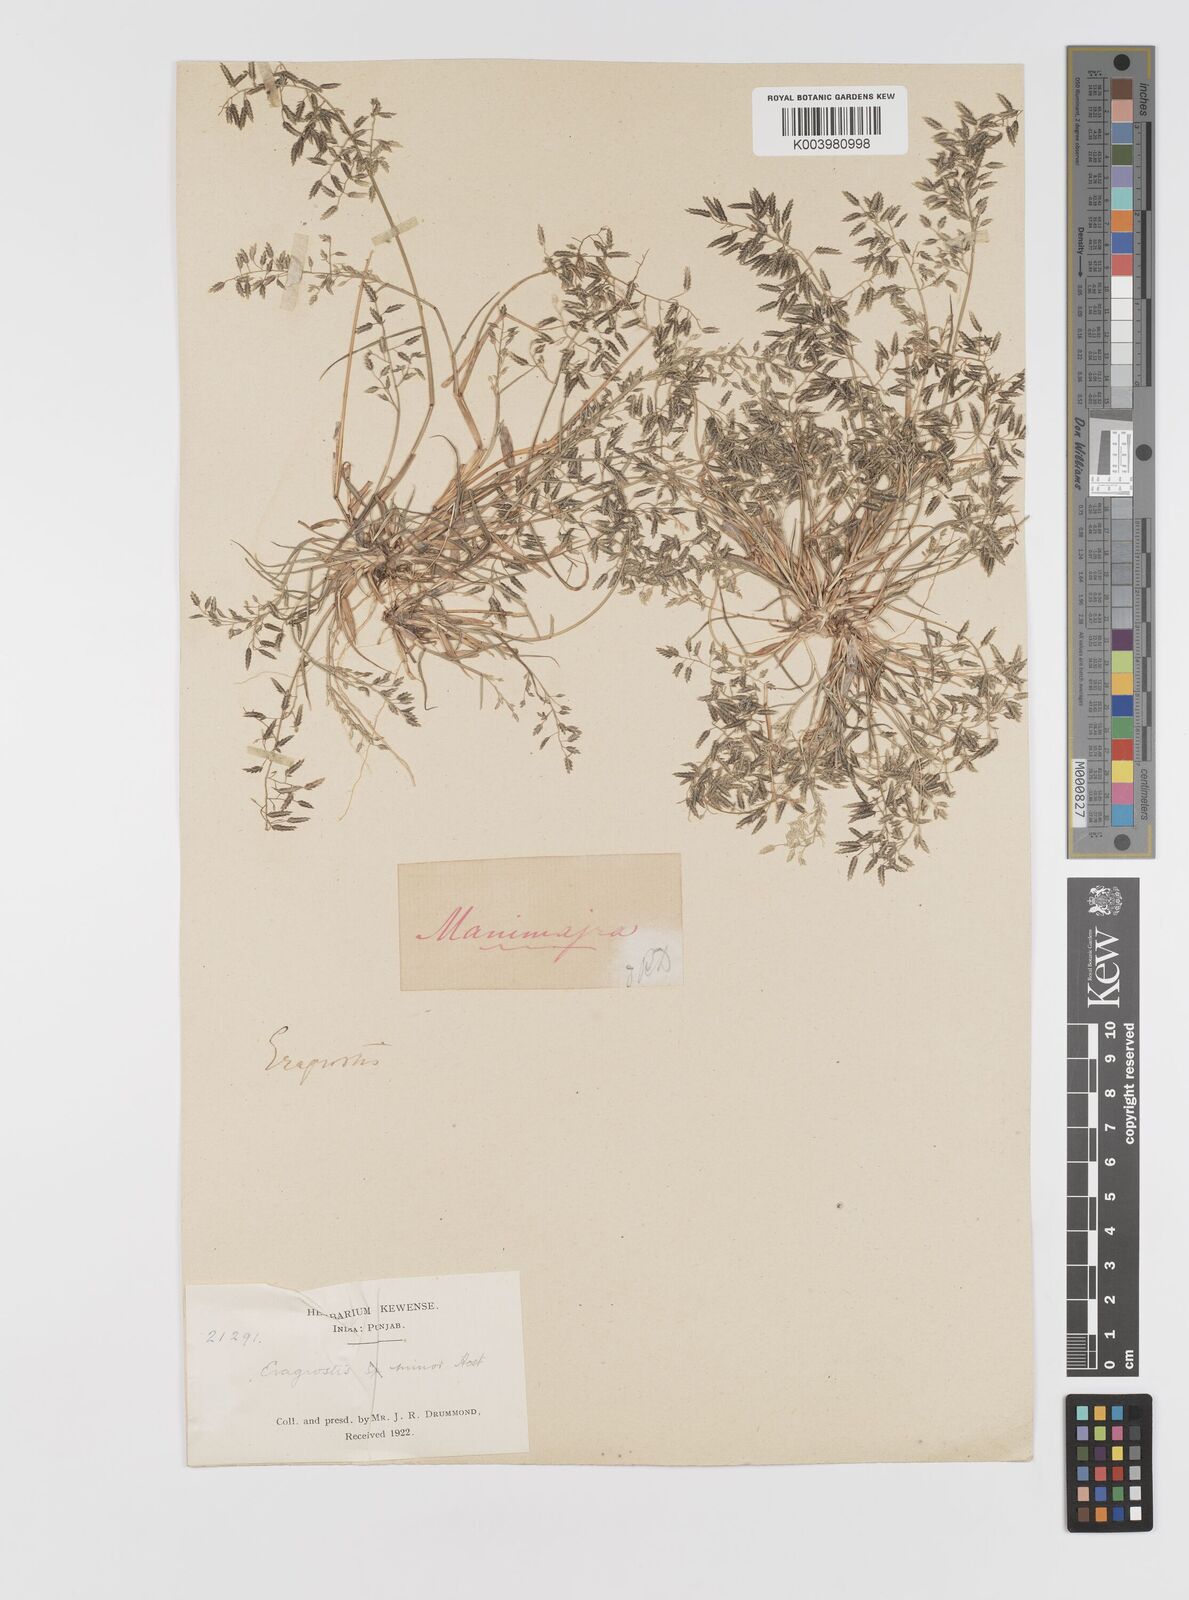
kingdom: Plantae
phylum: Tracheophyta
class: Liliopsida
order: Poales
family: Poaceae
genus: Eragrostis
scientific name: Eragrostis minor
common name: Small love-grass
